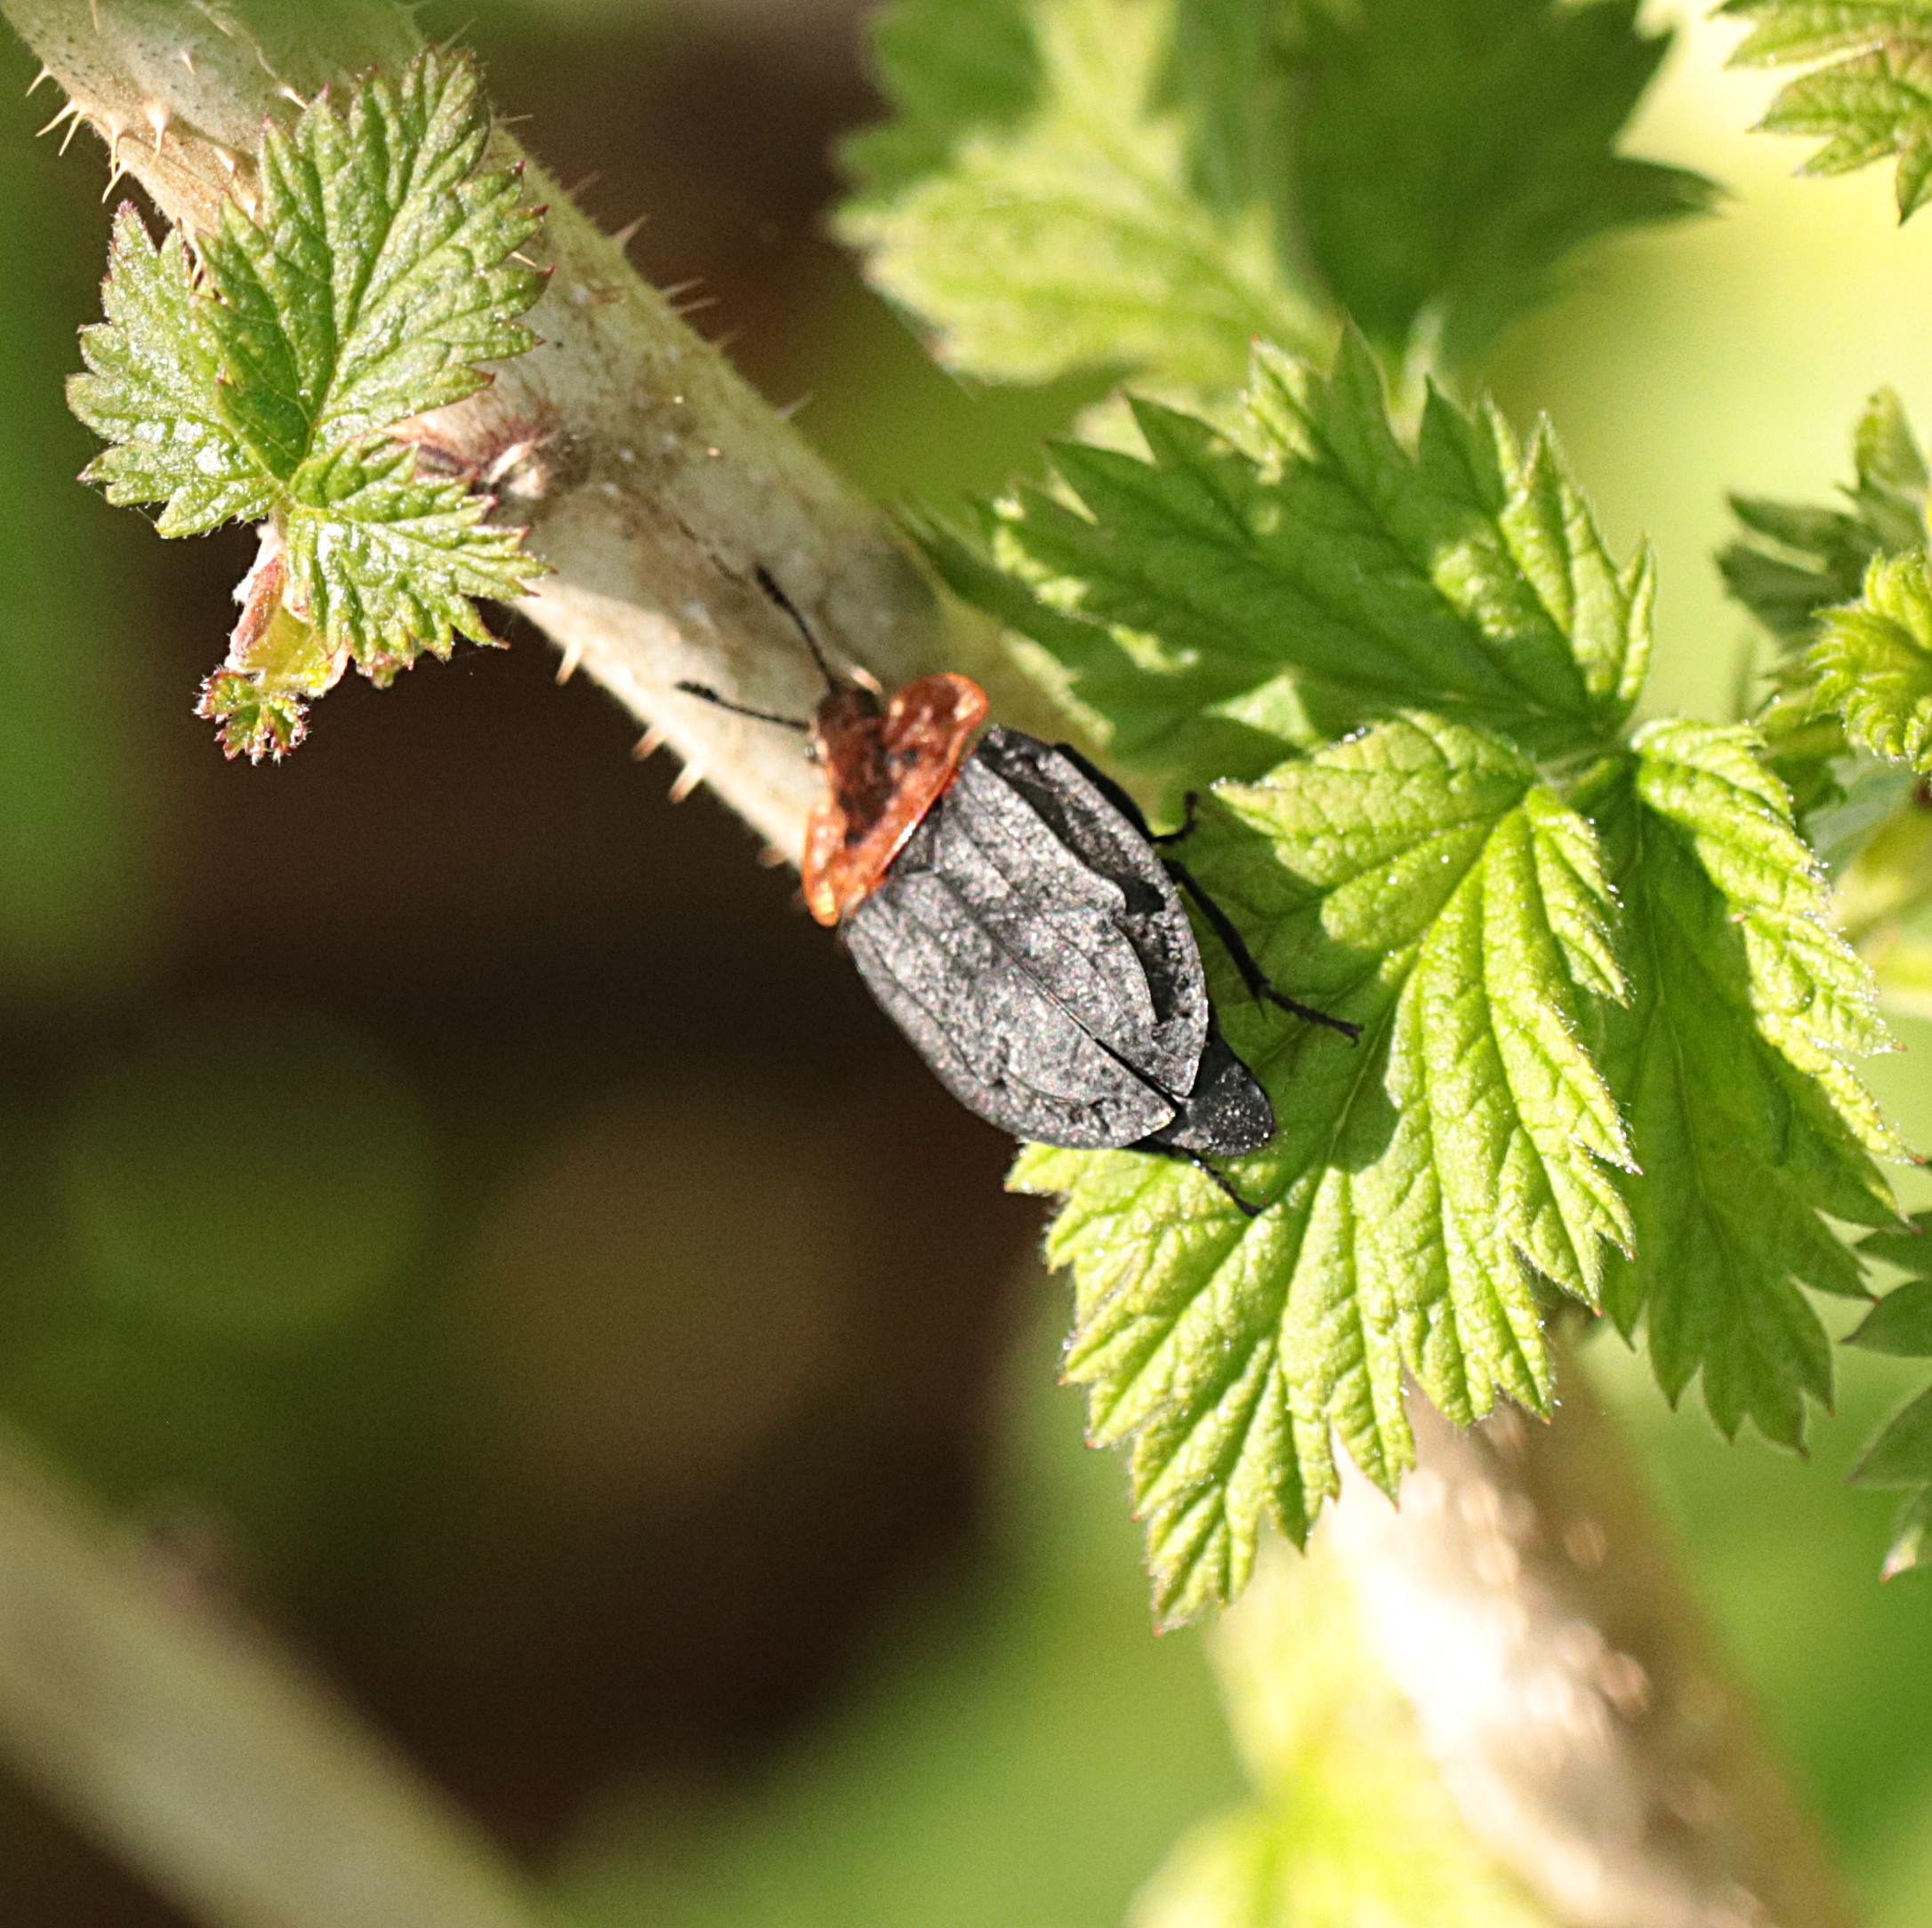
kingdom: Animalia
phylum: Arthropoda
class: Insecta
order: Coleoptera
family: Staphylinidae
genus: Oiceoptoma
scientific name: Oiceoptoma thoracicum
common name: Rødbrystet ådselbille
